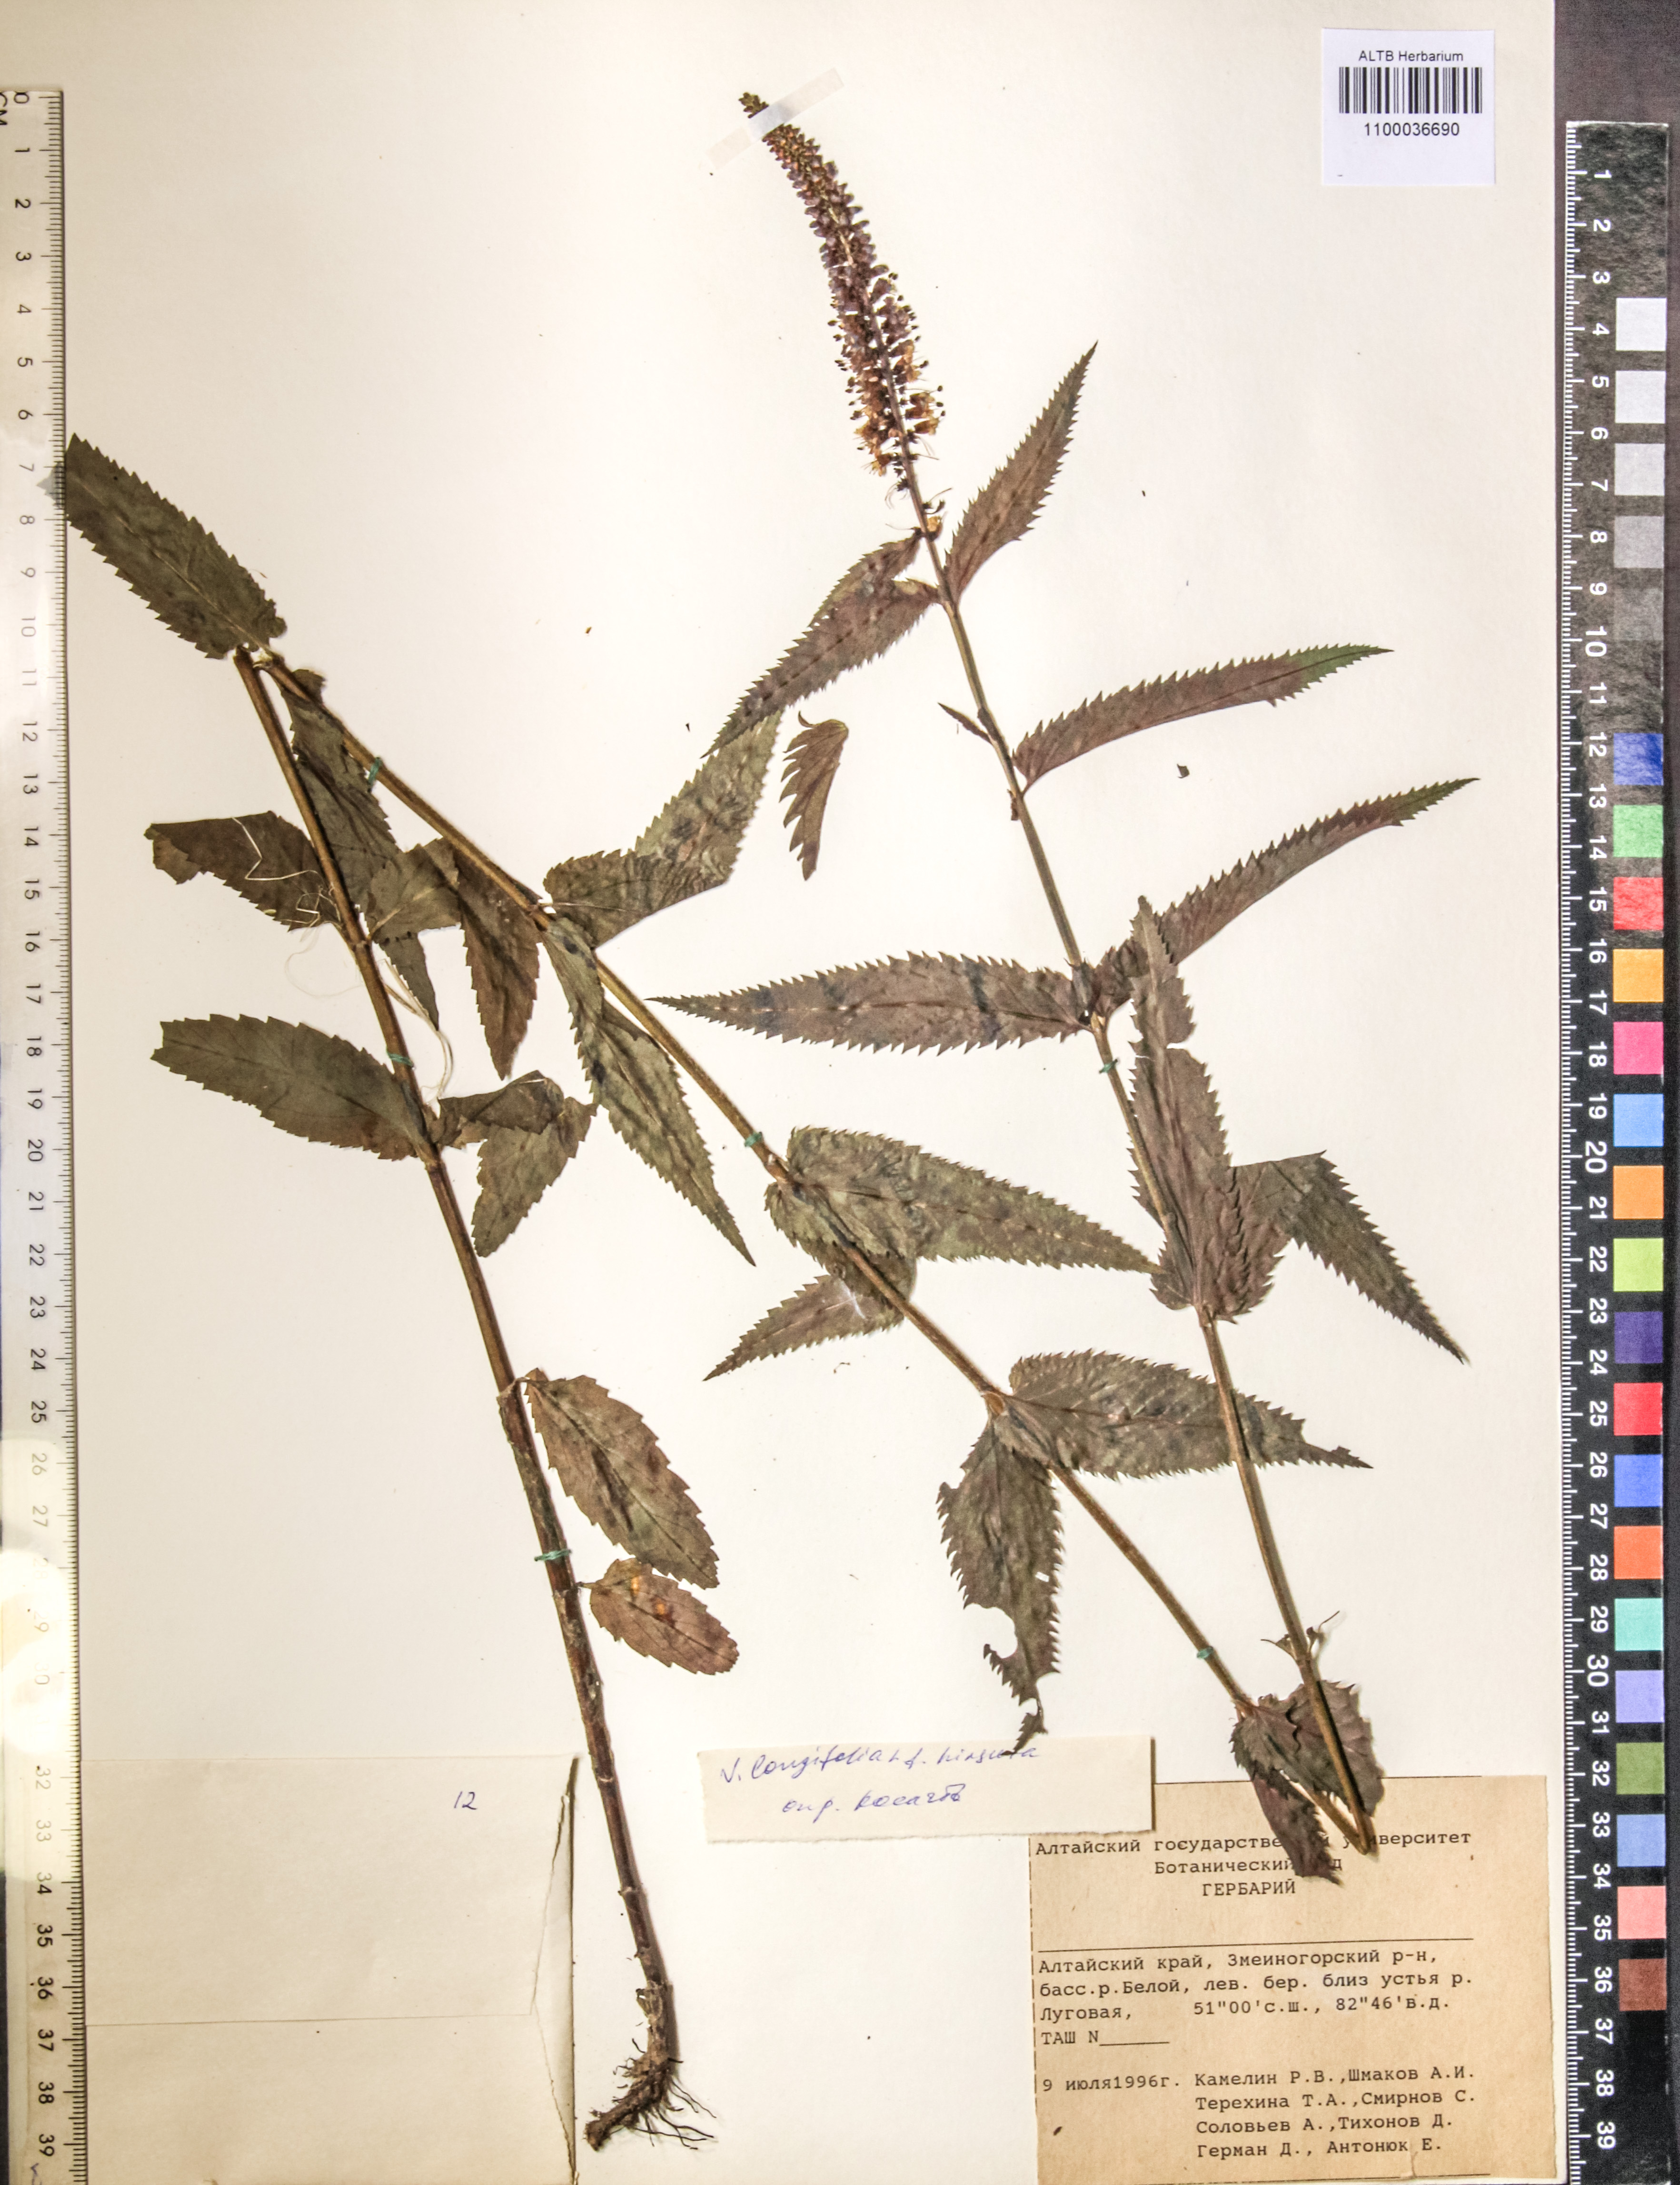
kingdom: Plantae
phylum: Tracheophyta
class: Magnoliopsida
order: Lamiales
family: Plantaginaceae
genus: Veronica
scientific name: Veronica longifolia
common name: Garden speedwell
